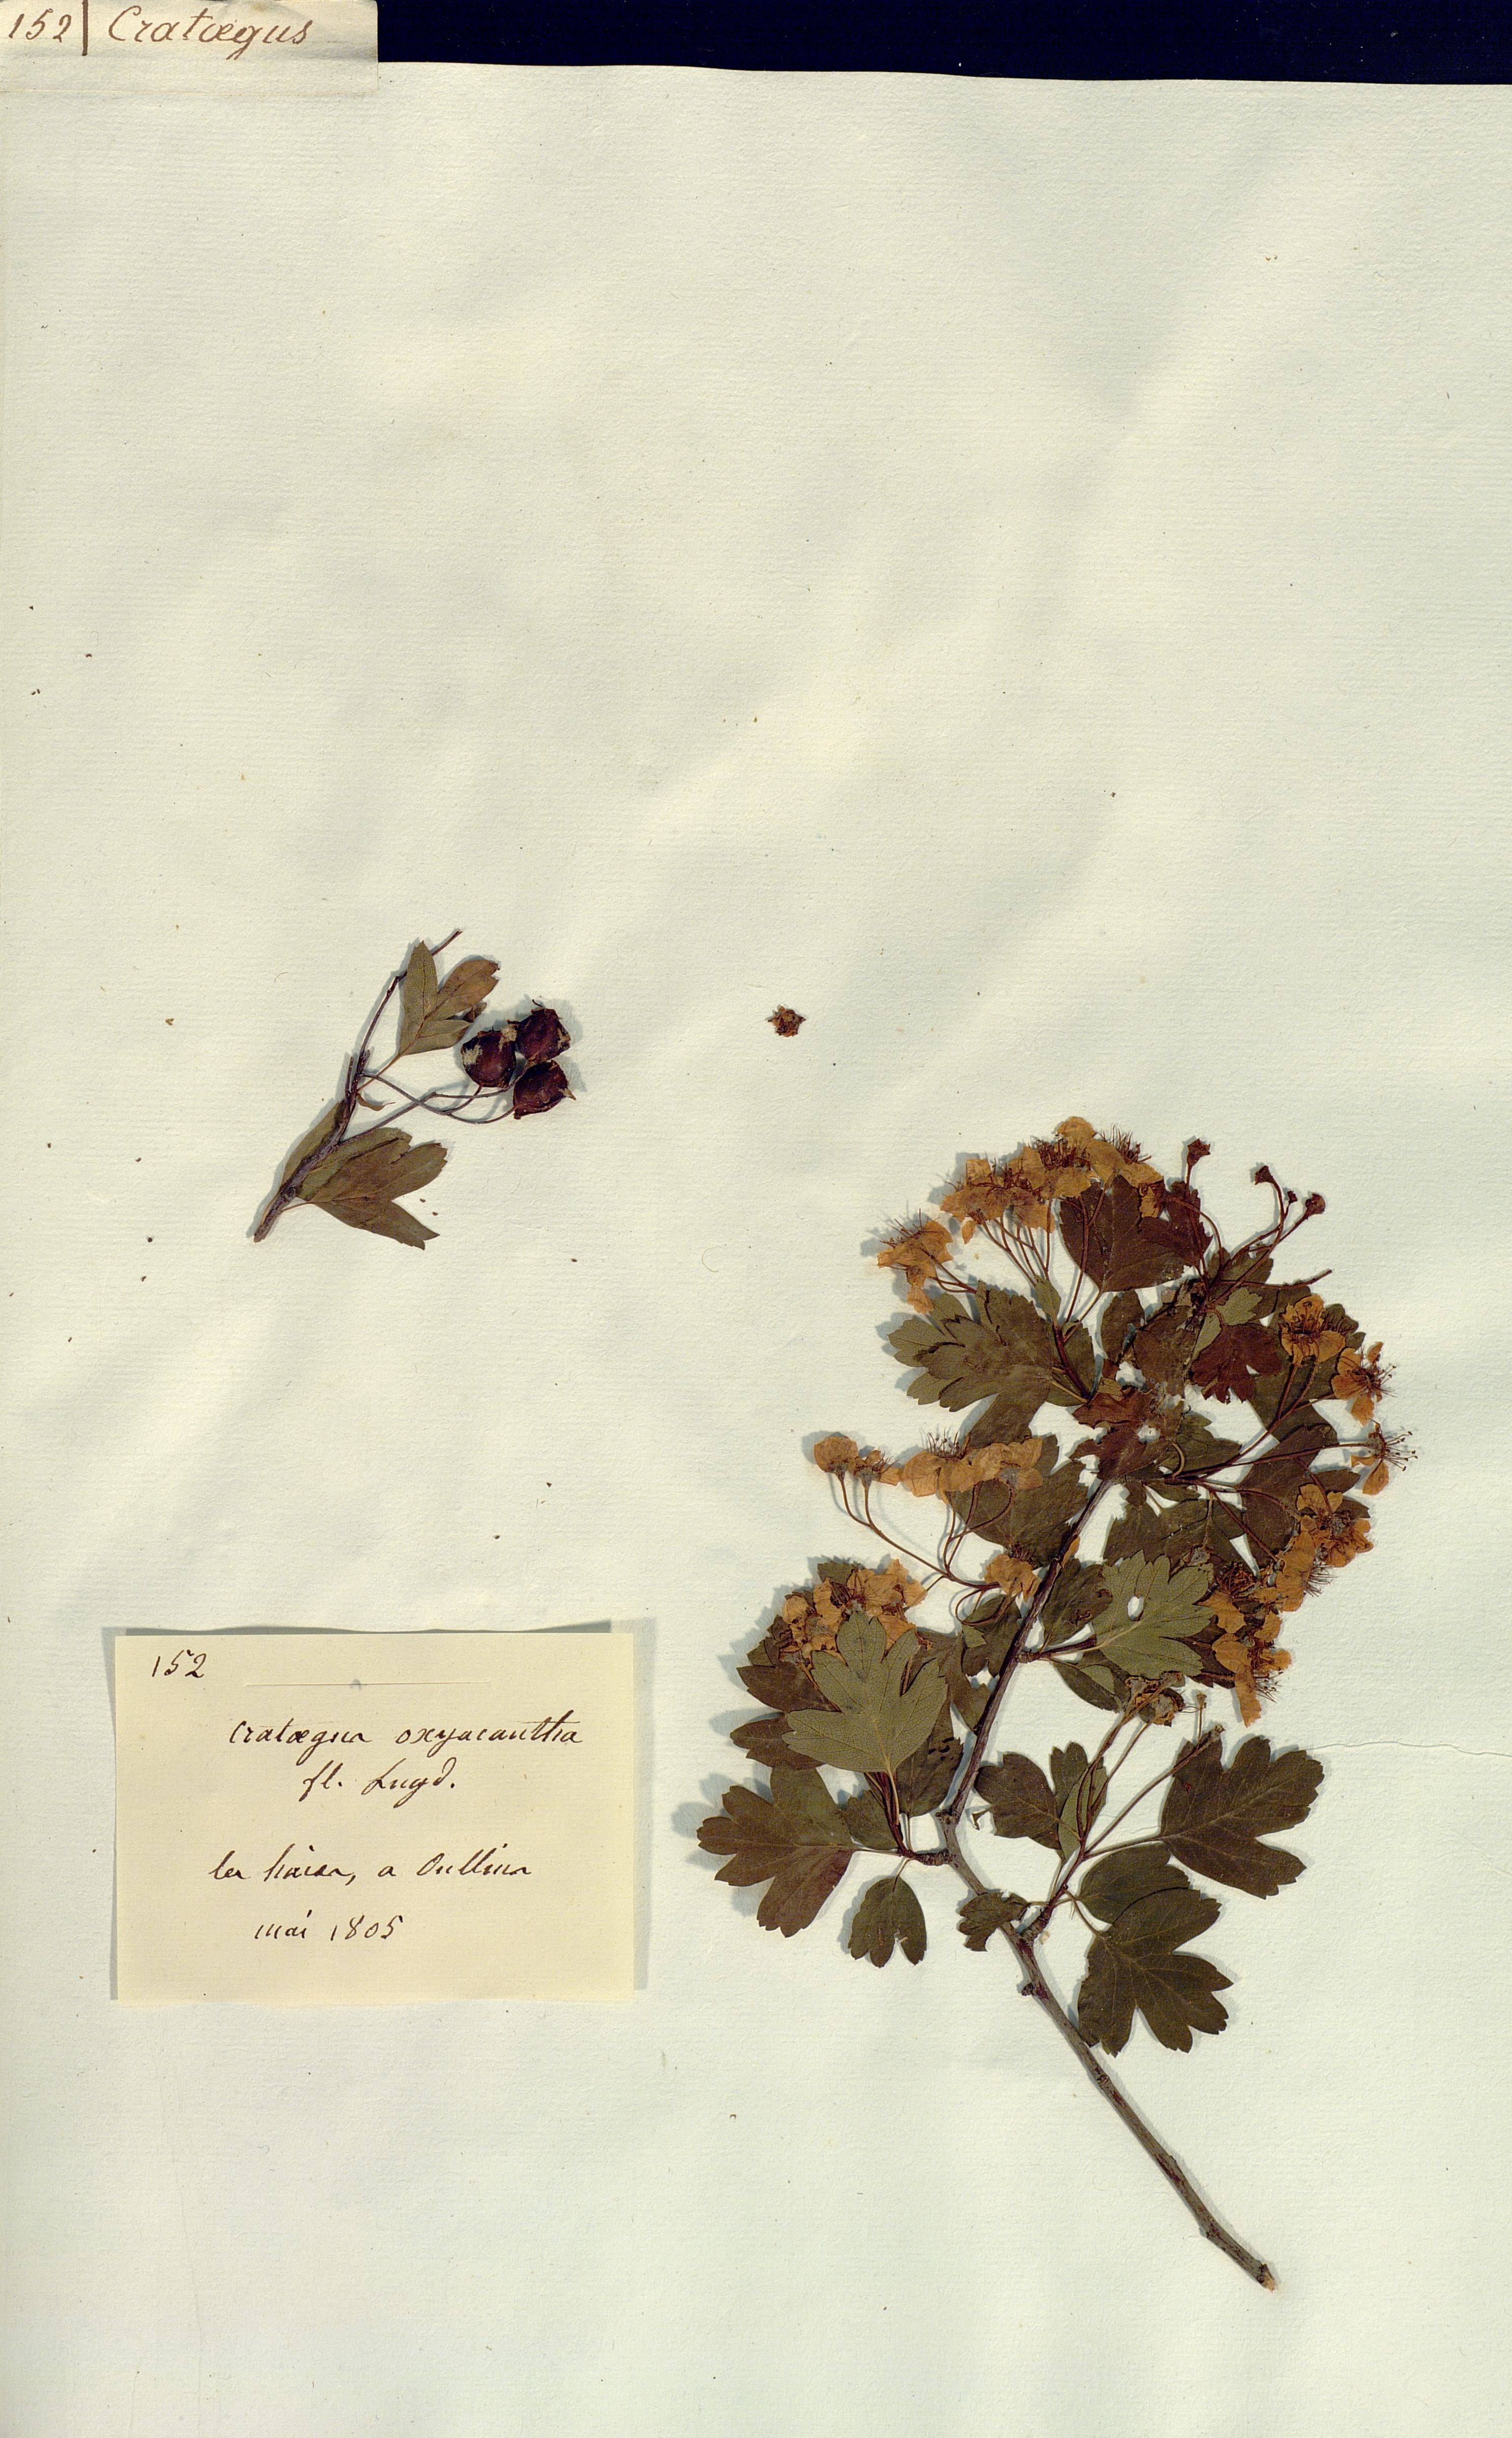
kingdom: Plantae
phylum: Tracheophyta
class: Magnoliopsida
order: Rosales
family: Rosaceae
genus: Crataegus
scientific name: Crataegus
